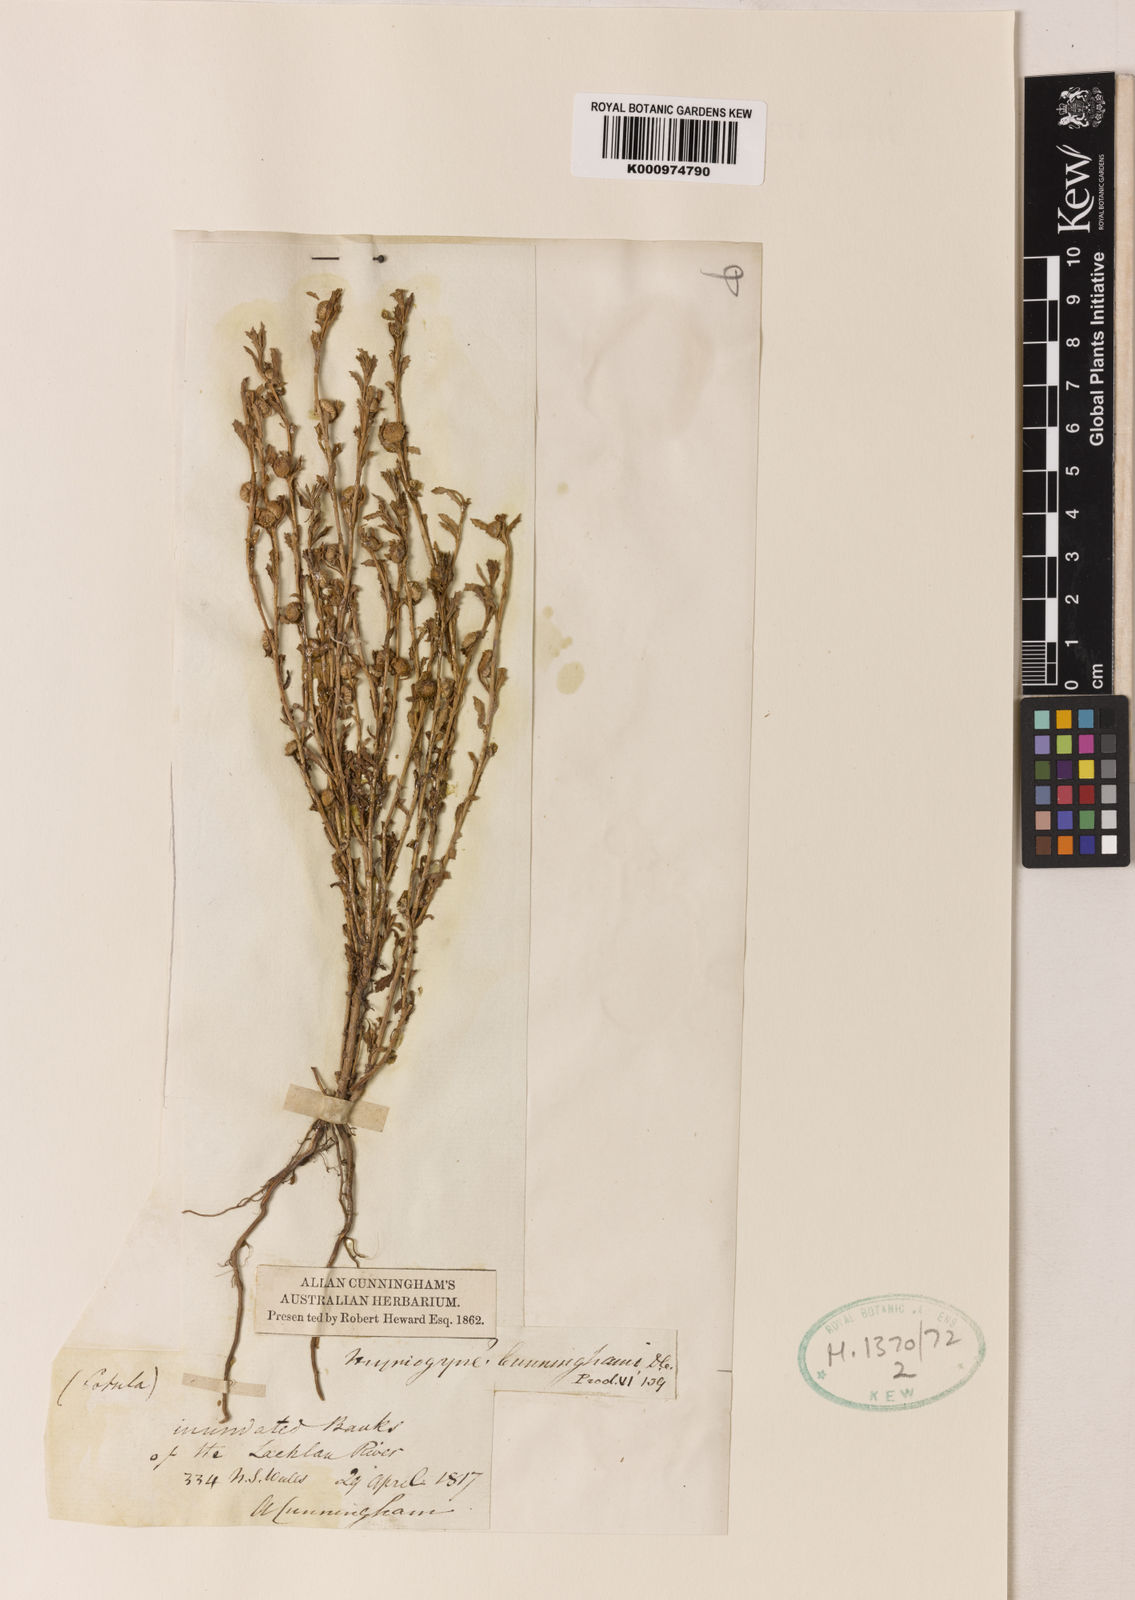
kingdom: Plantae
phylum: Tracheophyta
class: Magnoliopsida
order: Asterales
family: Asteraceae
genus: Centipeda
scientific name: Centipeda cunninghamii
